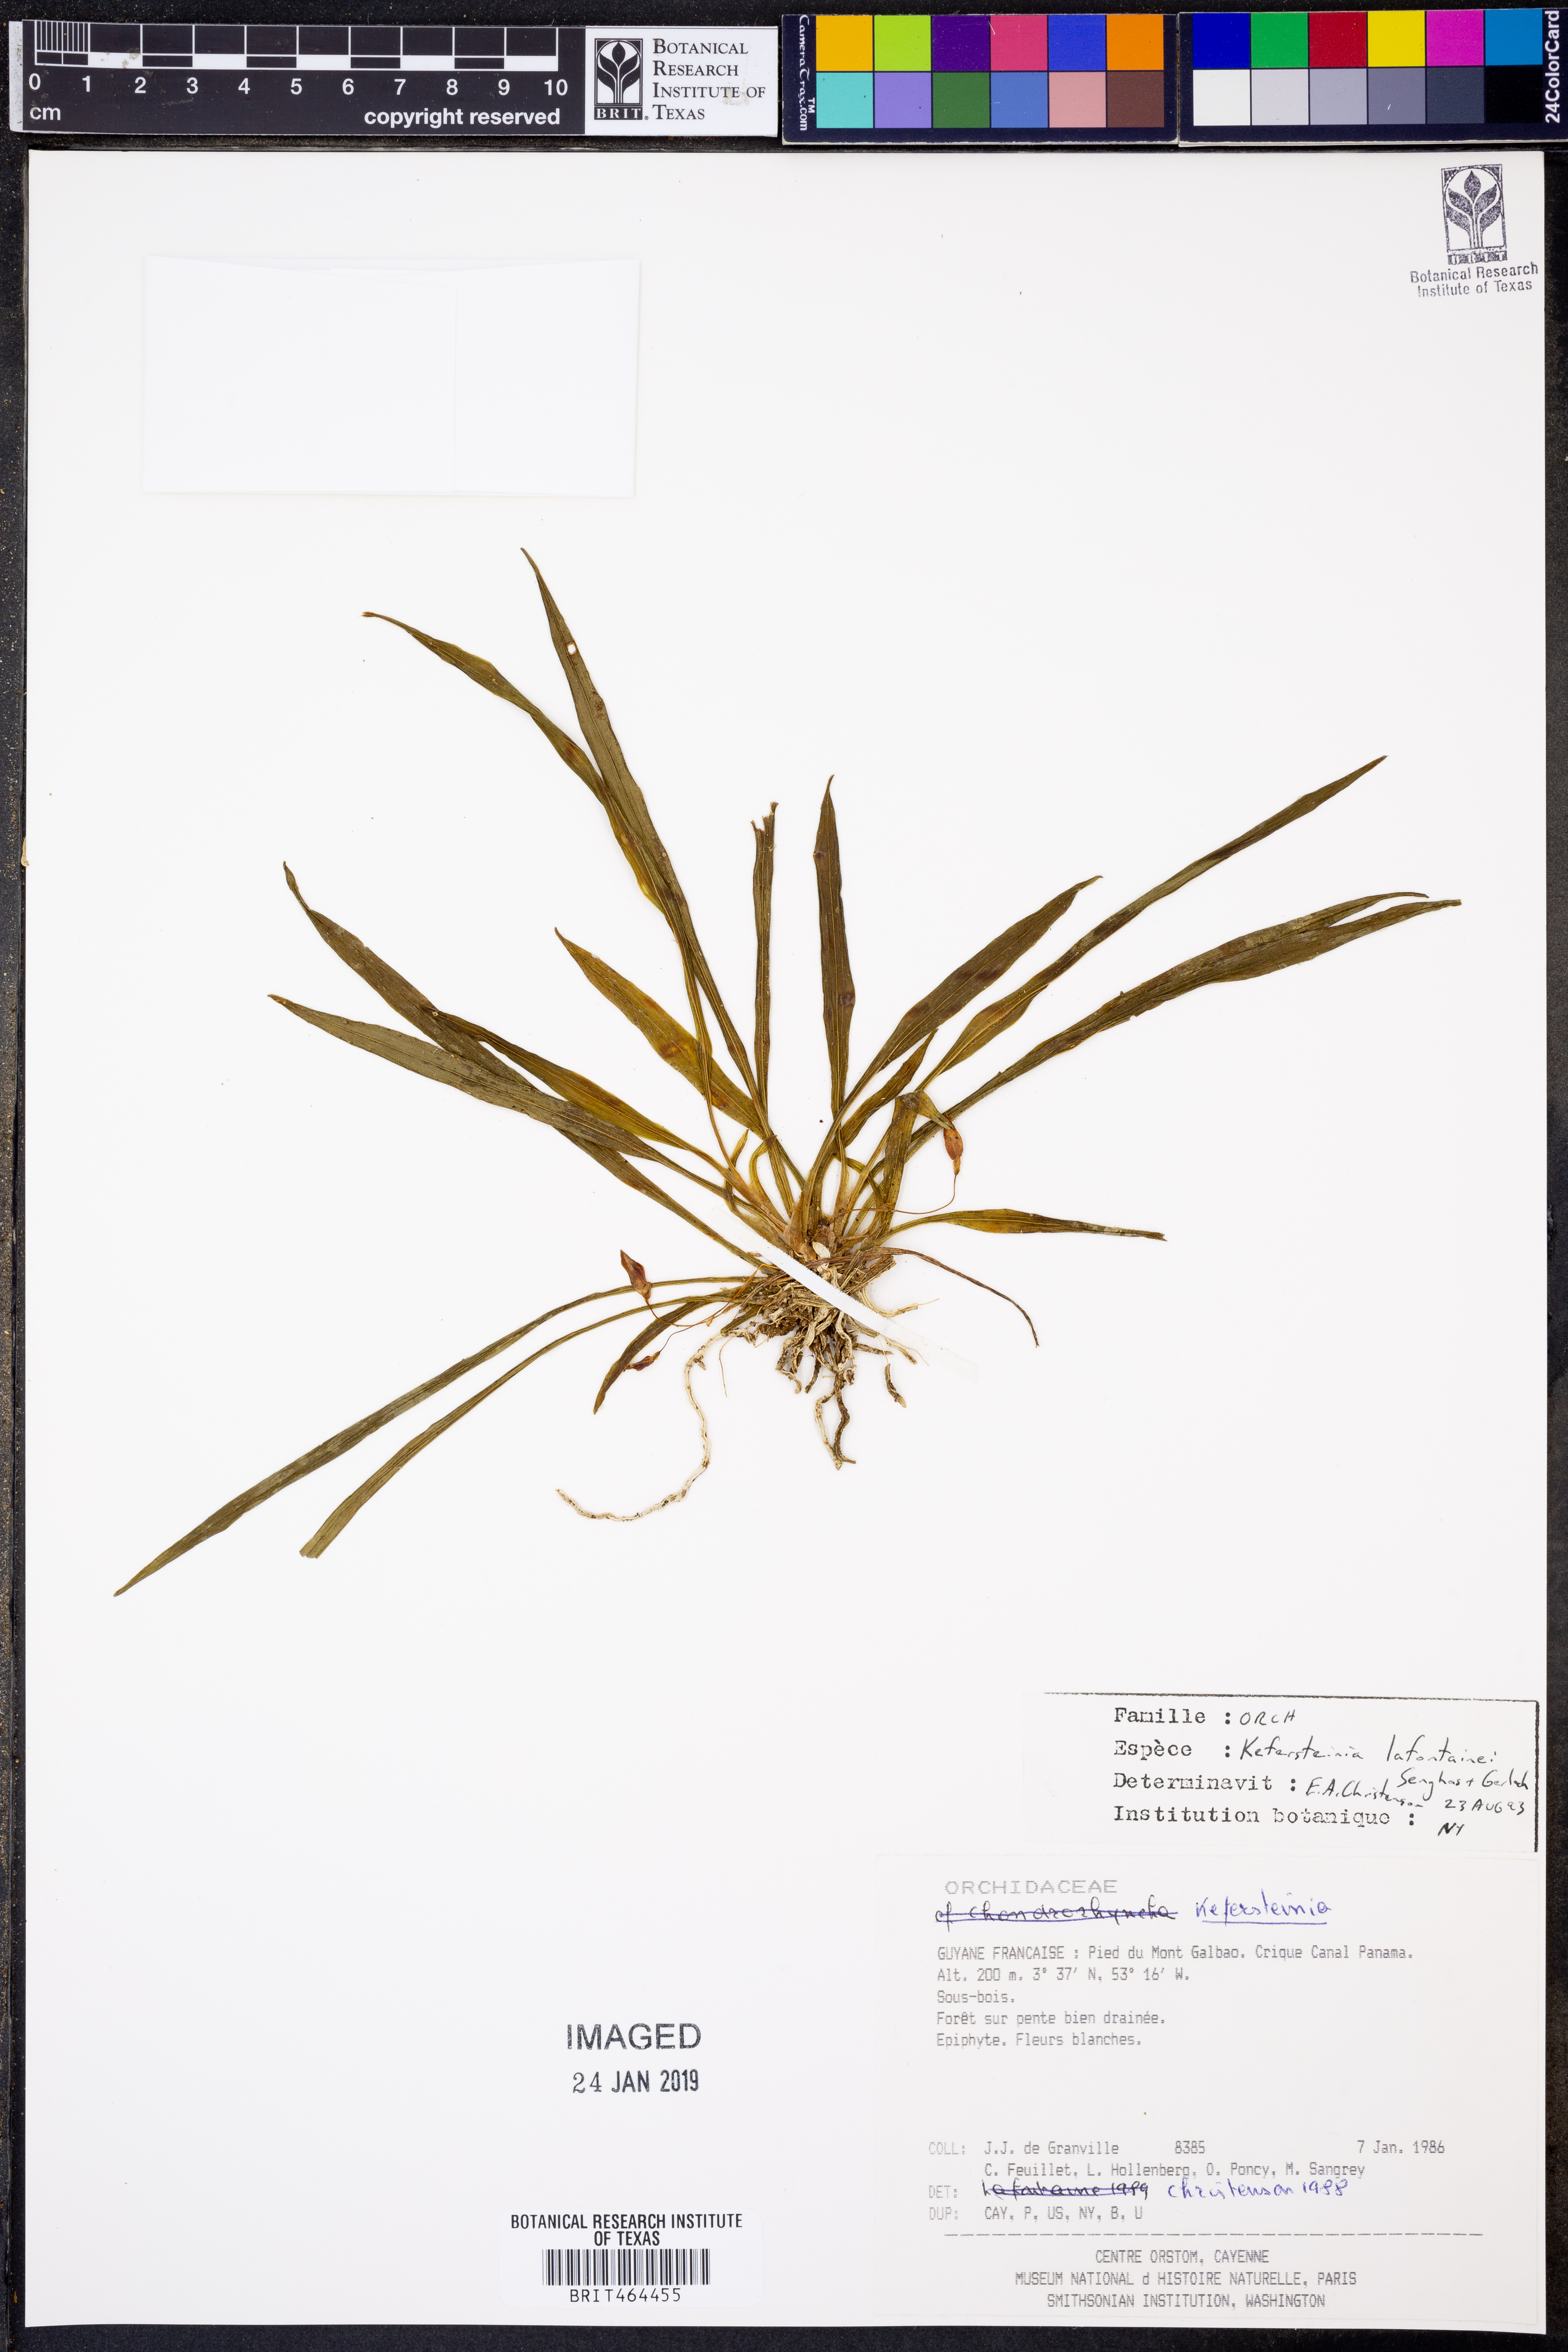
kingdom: Plantae
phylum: Tracheophyta
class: Liliopsida
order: Asparagales
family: Orchidaceae
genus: Kefersteinia
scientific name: Kefersteinia lafontainei
